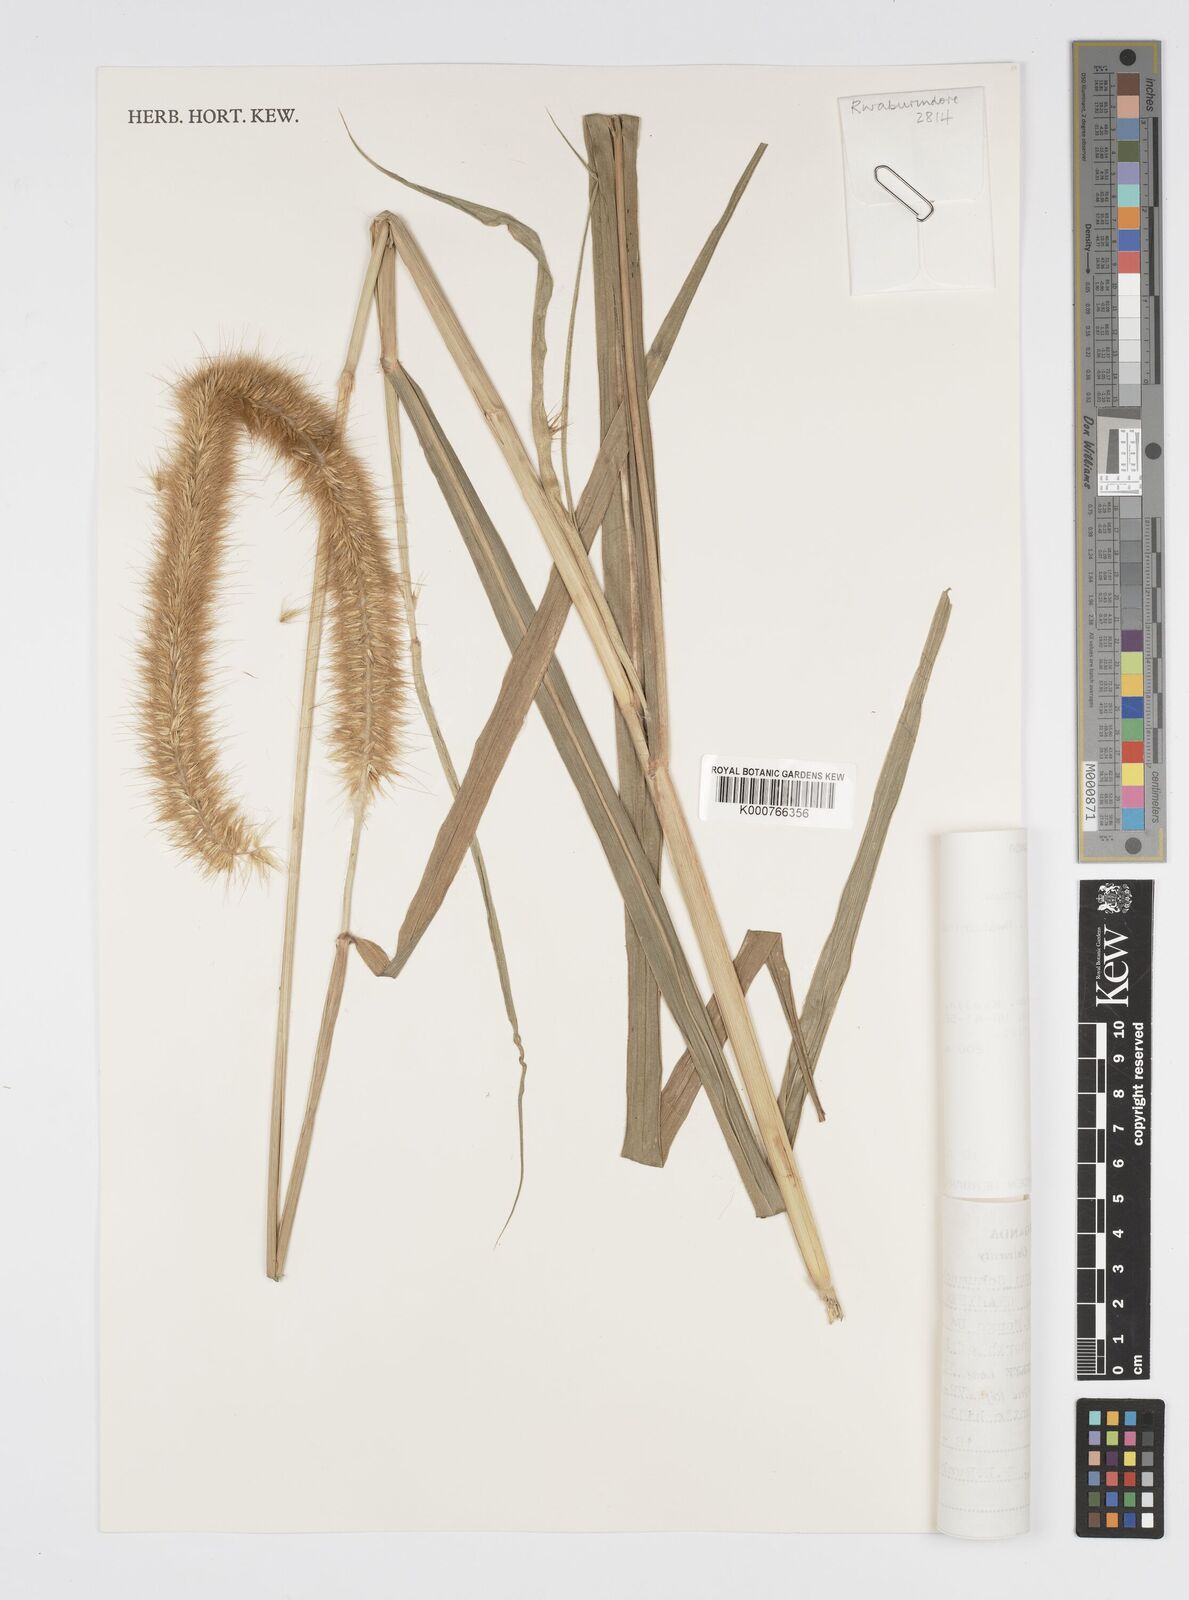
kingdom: Plantae
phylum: Tracheophyta
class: Liliopsida
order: Poales
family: Poaceae
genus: Cenchrus
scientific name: Cenchrus purpureus
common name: Elephant grass
